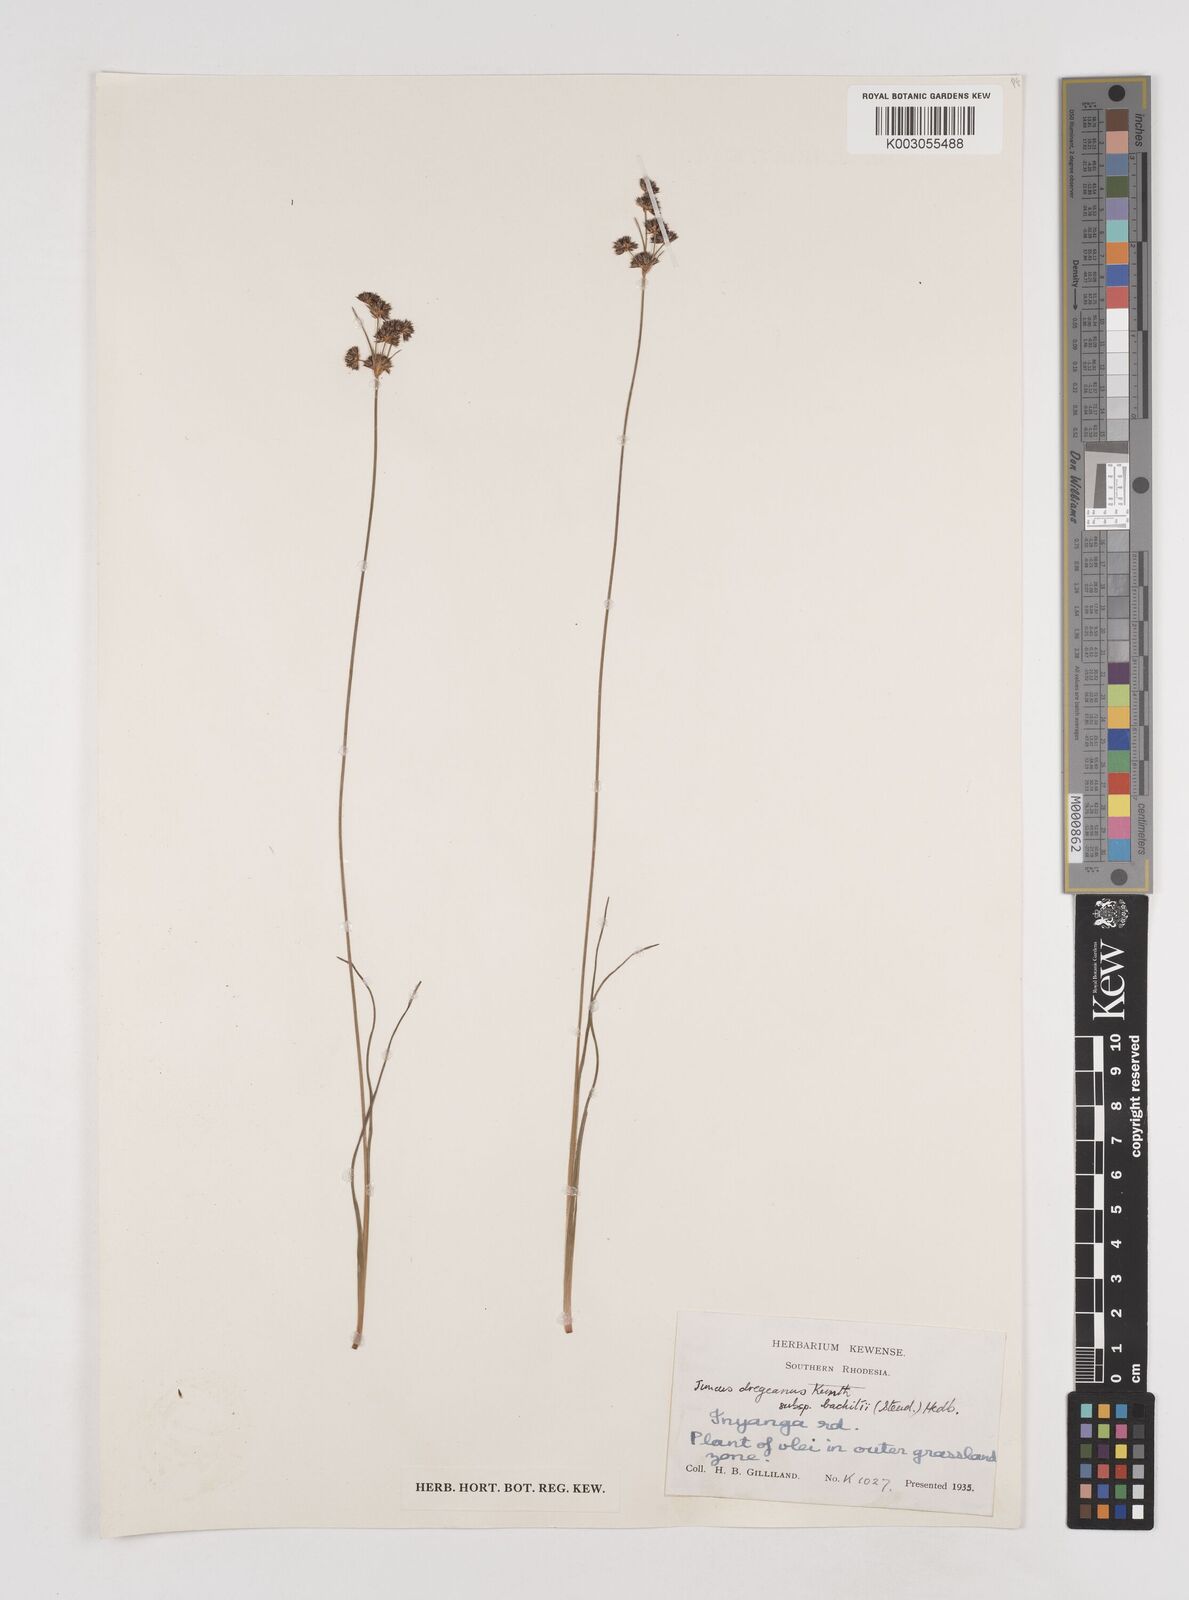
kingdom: Plantae
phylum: Tracheophyta
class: Liliopsida
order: Poales
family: Juncaceae
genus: Juncus
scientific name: Juncus dregeanus
